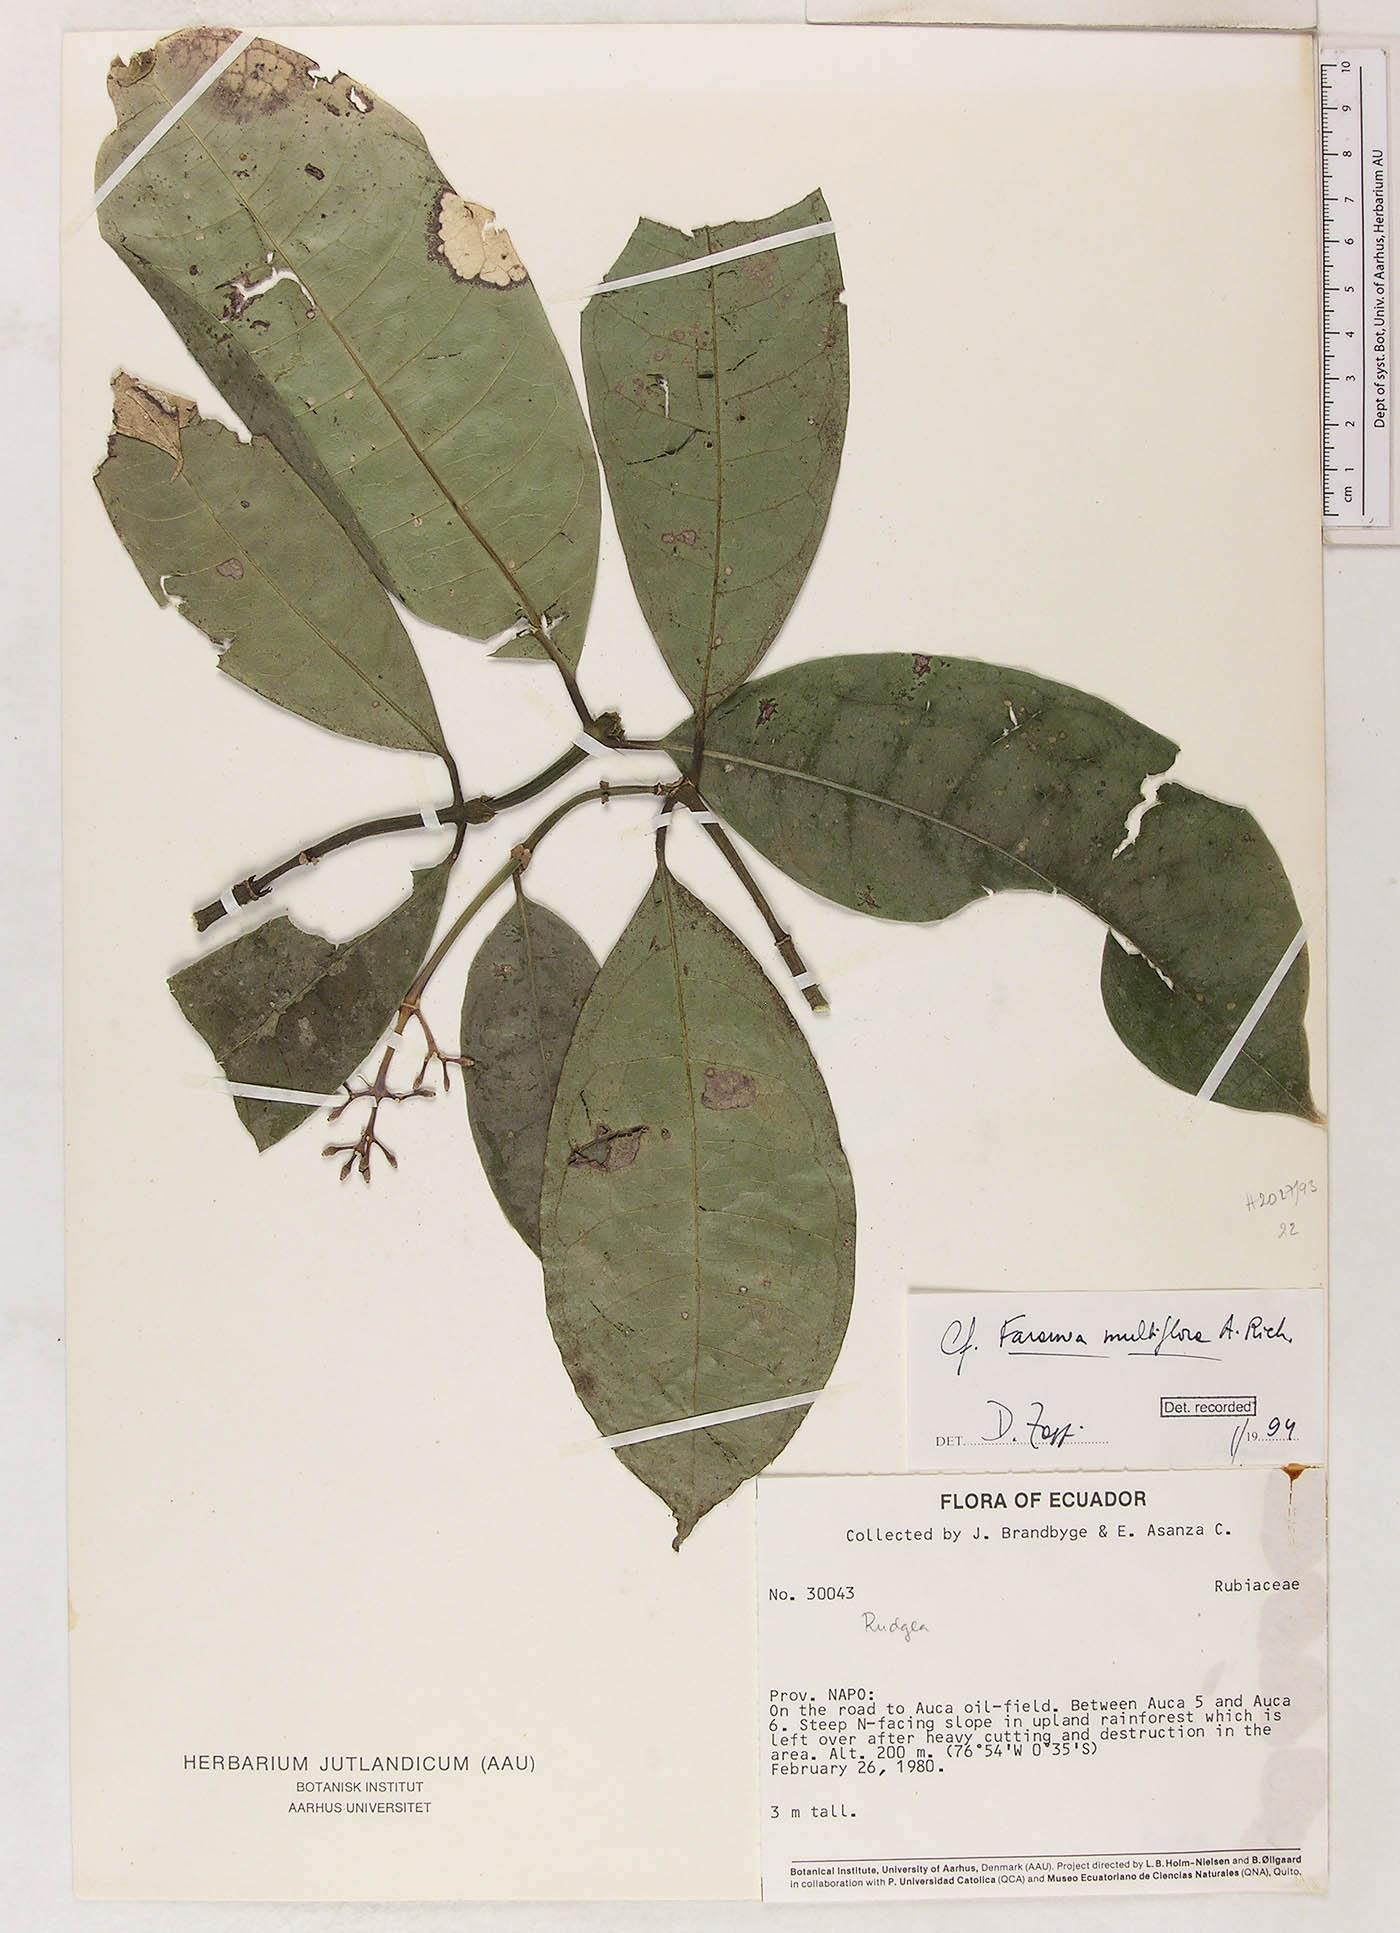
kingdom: Plantae
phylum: Tracheophyta
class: Magnoliopsida
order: Gentianales
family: Rubiaceae
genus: Faramea
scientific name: Faramea multiflora
